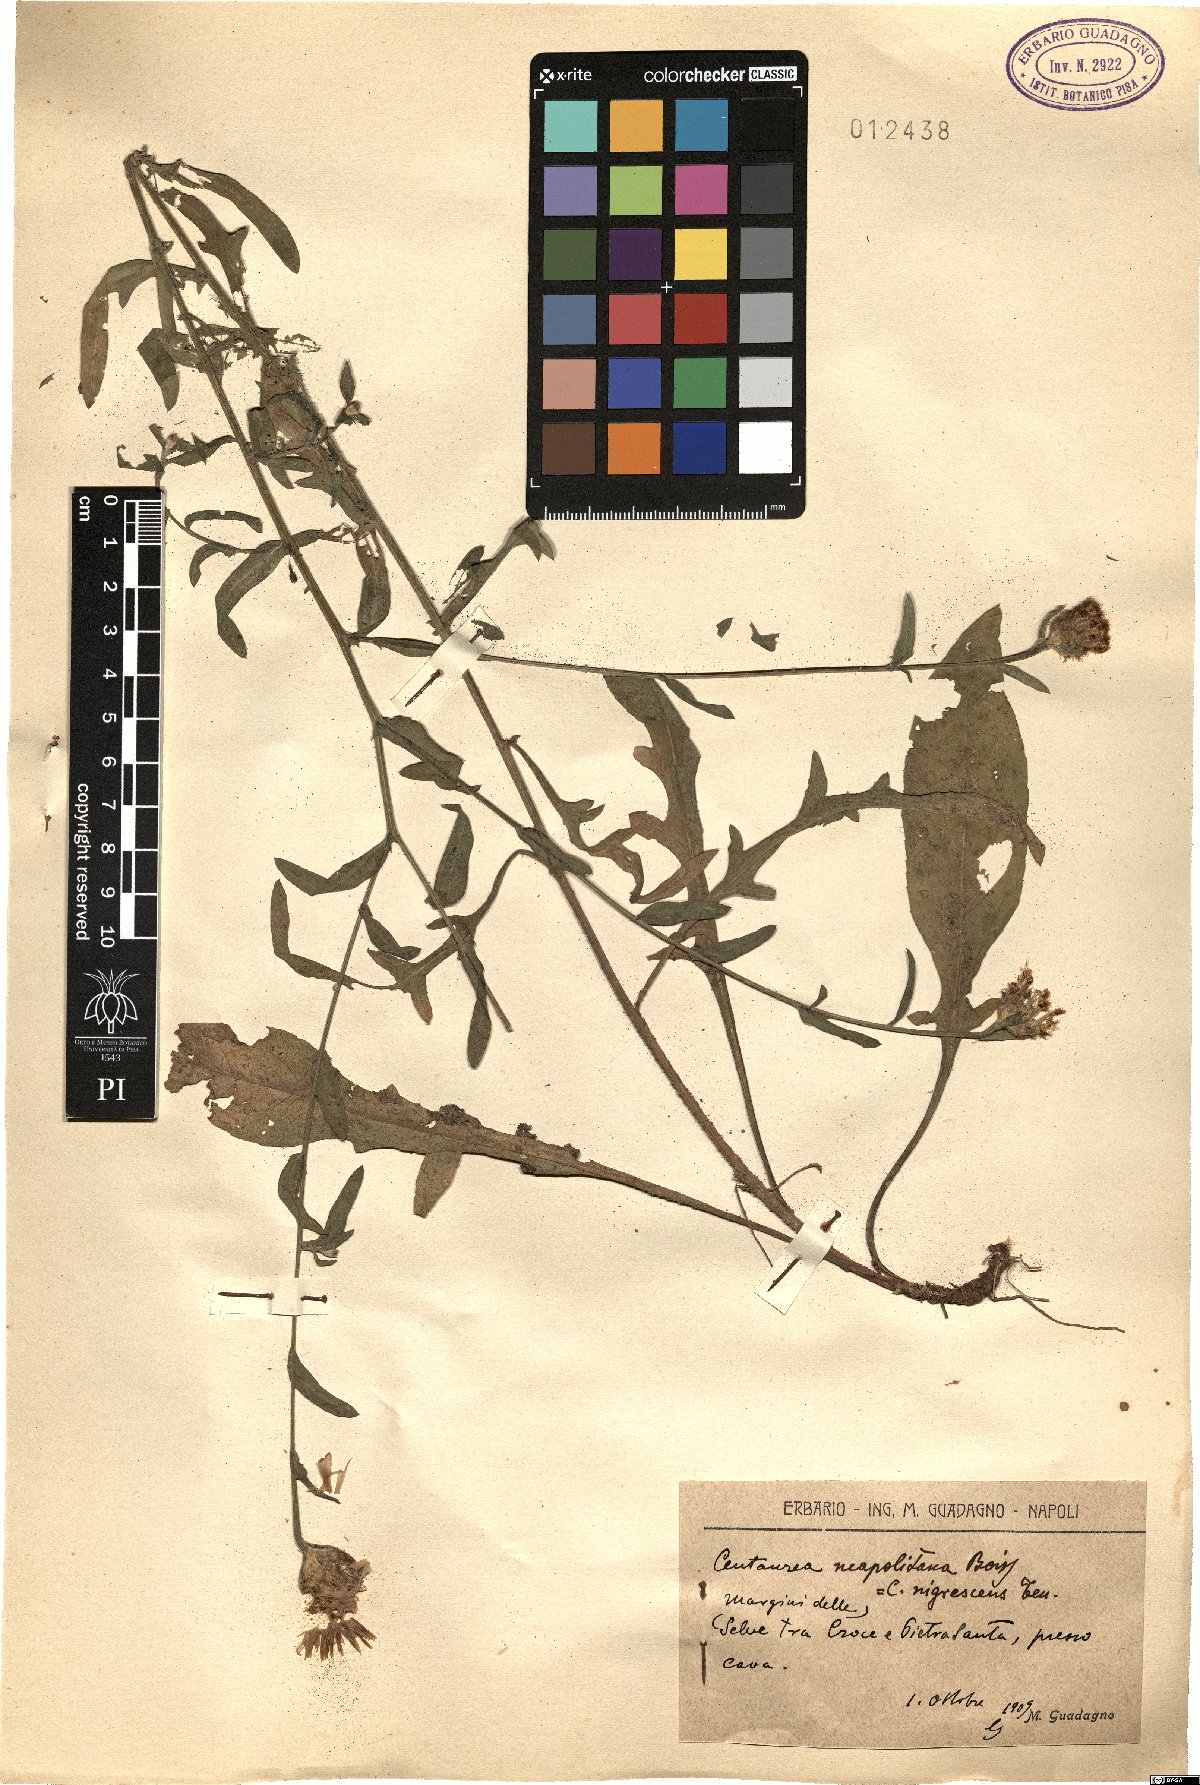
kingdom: Plantae
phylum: Tracheophyta
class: Magnoliopsida
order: Asterales
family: Asteraceae
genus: Centaurea
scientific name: Centaurea nigrescens
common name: Tyrol knapweed
